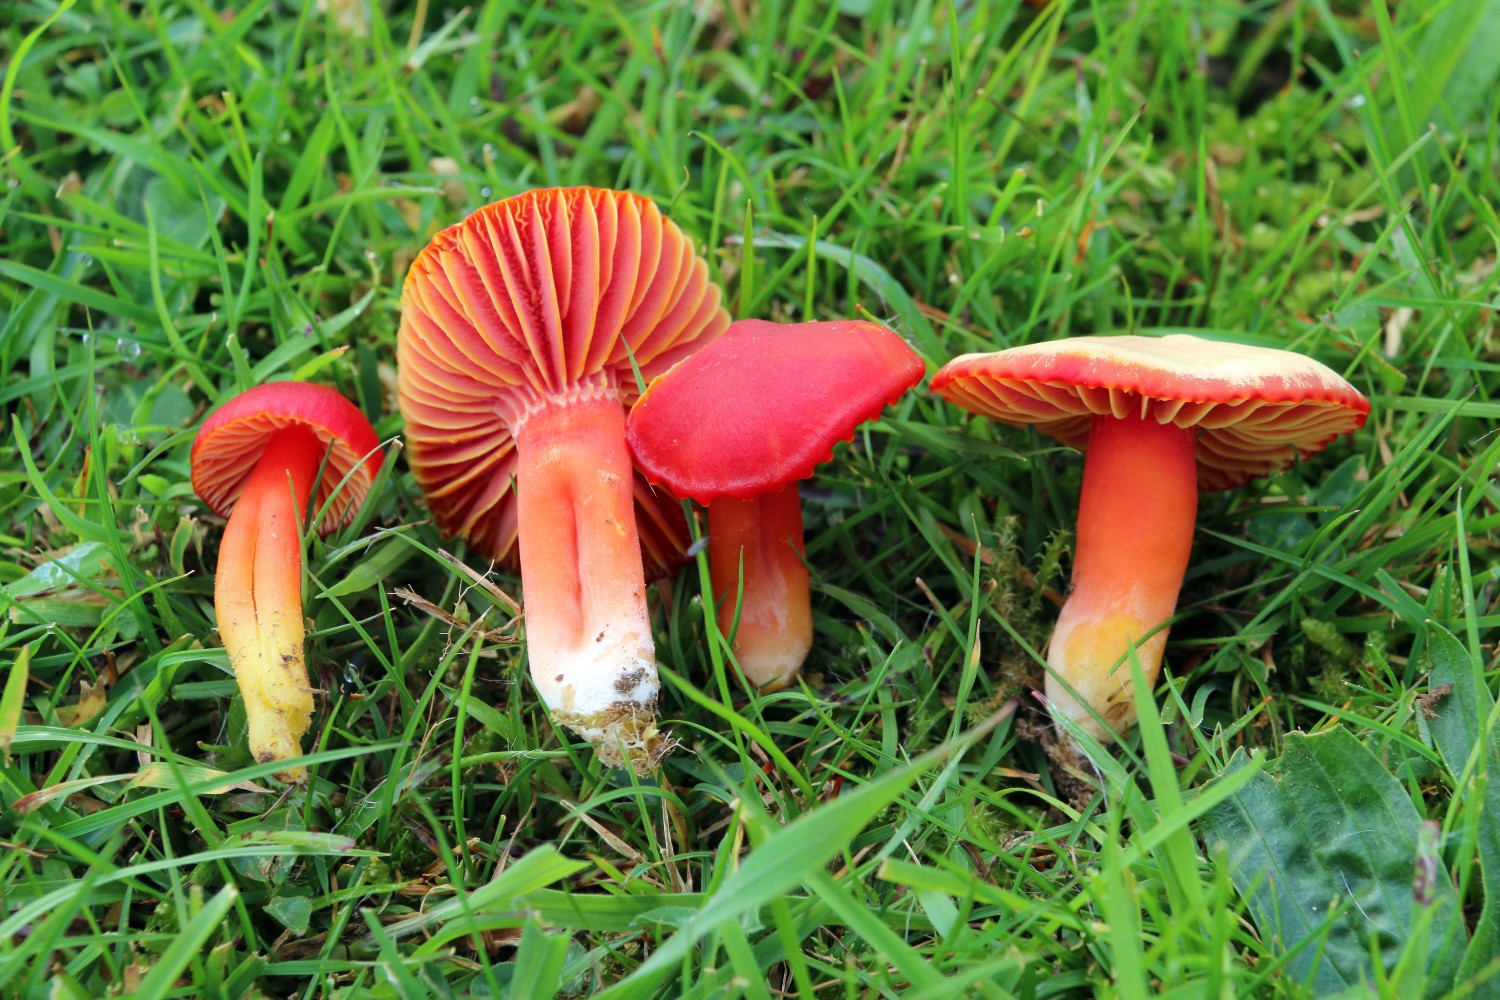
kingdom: Fungi
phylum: Basidiomycota
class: Agaricomycetes
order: Agaricales
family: Hygrophoraceae
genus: Hygrocybe
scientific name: Hygrocybe coccinea
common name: cinnober-vokshat
